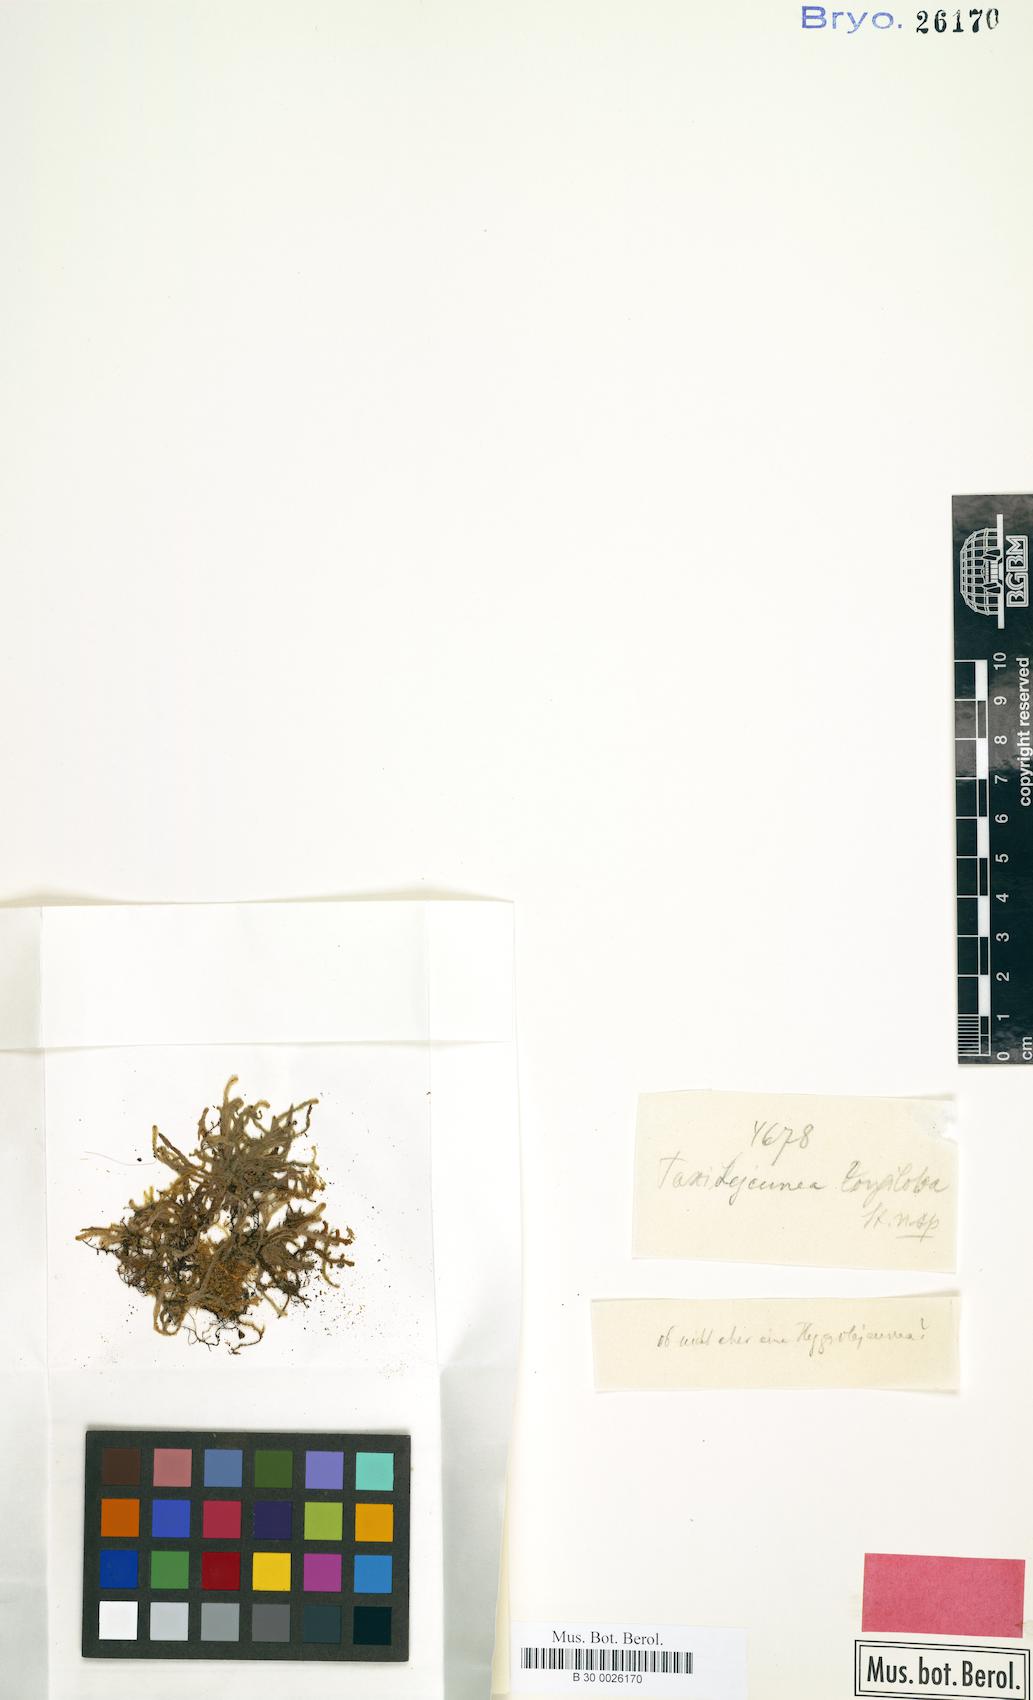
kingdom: Plantae
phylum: Marchantiophyta
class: Jungermanniopsida
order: Porellales
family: Lejeuneaceae
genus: Lejeunea
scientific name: Lejeunea rotundifolia
